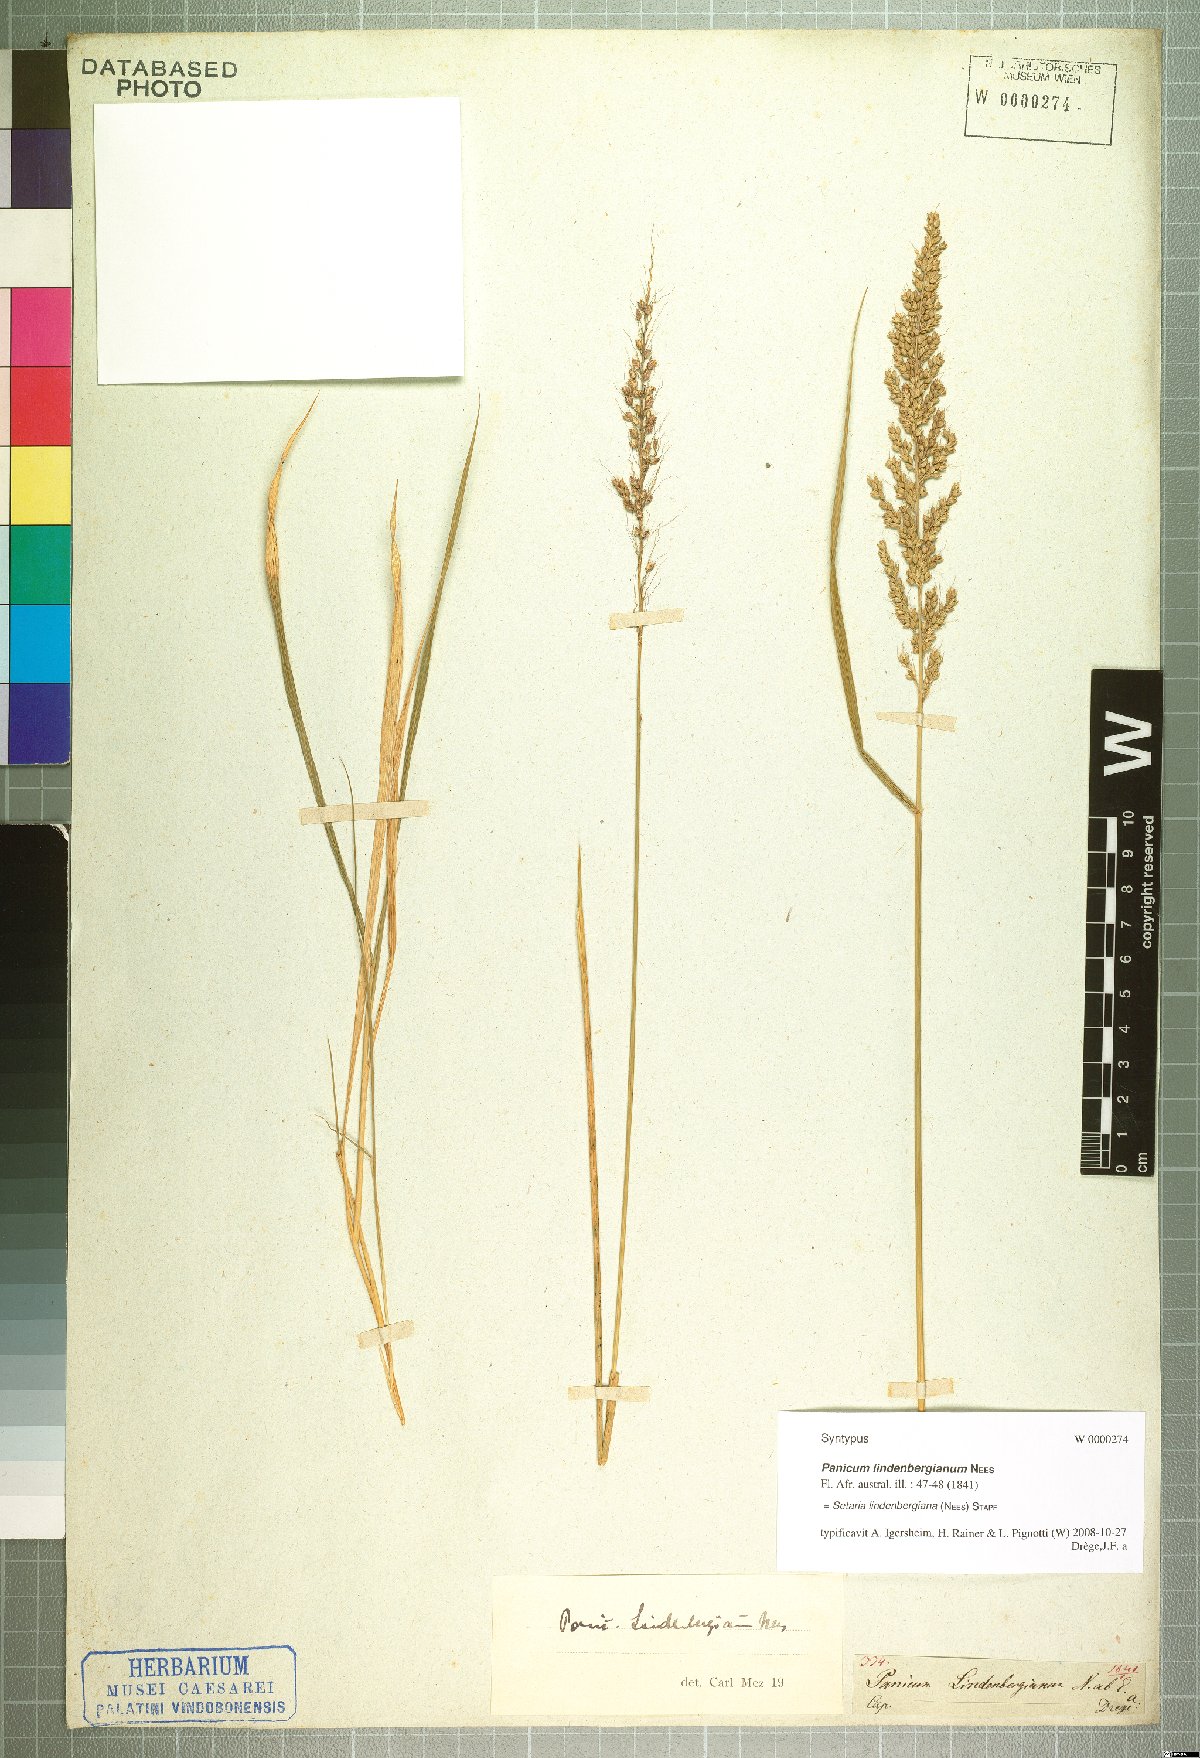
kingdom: Plantae
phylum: Tracheophyta
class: Liliopsida
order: Poales
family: Poaceae
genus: Setaria
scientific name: Setaria lindenbergiana
